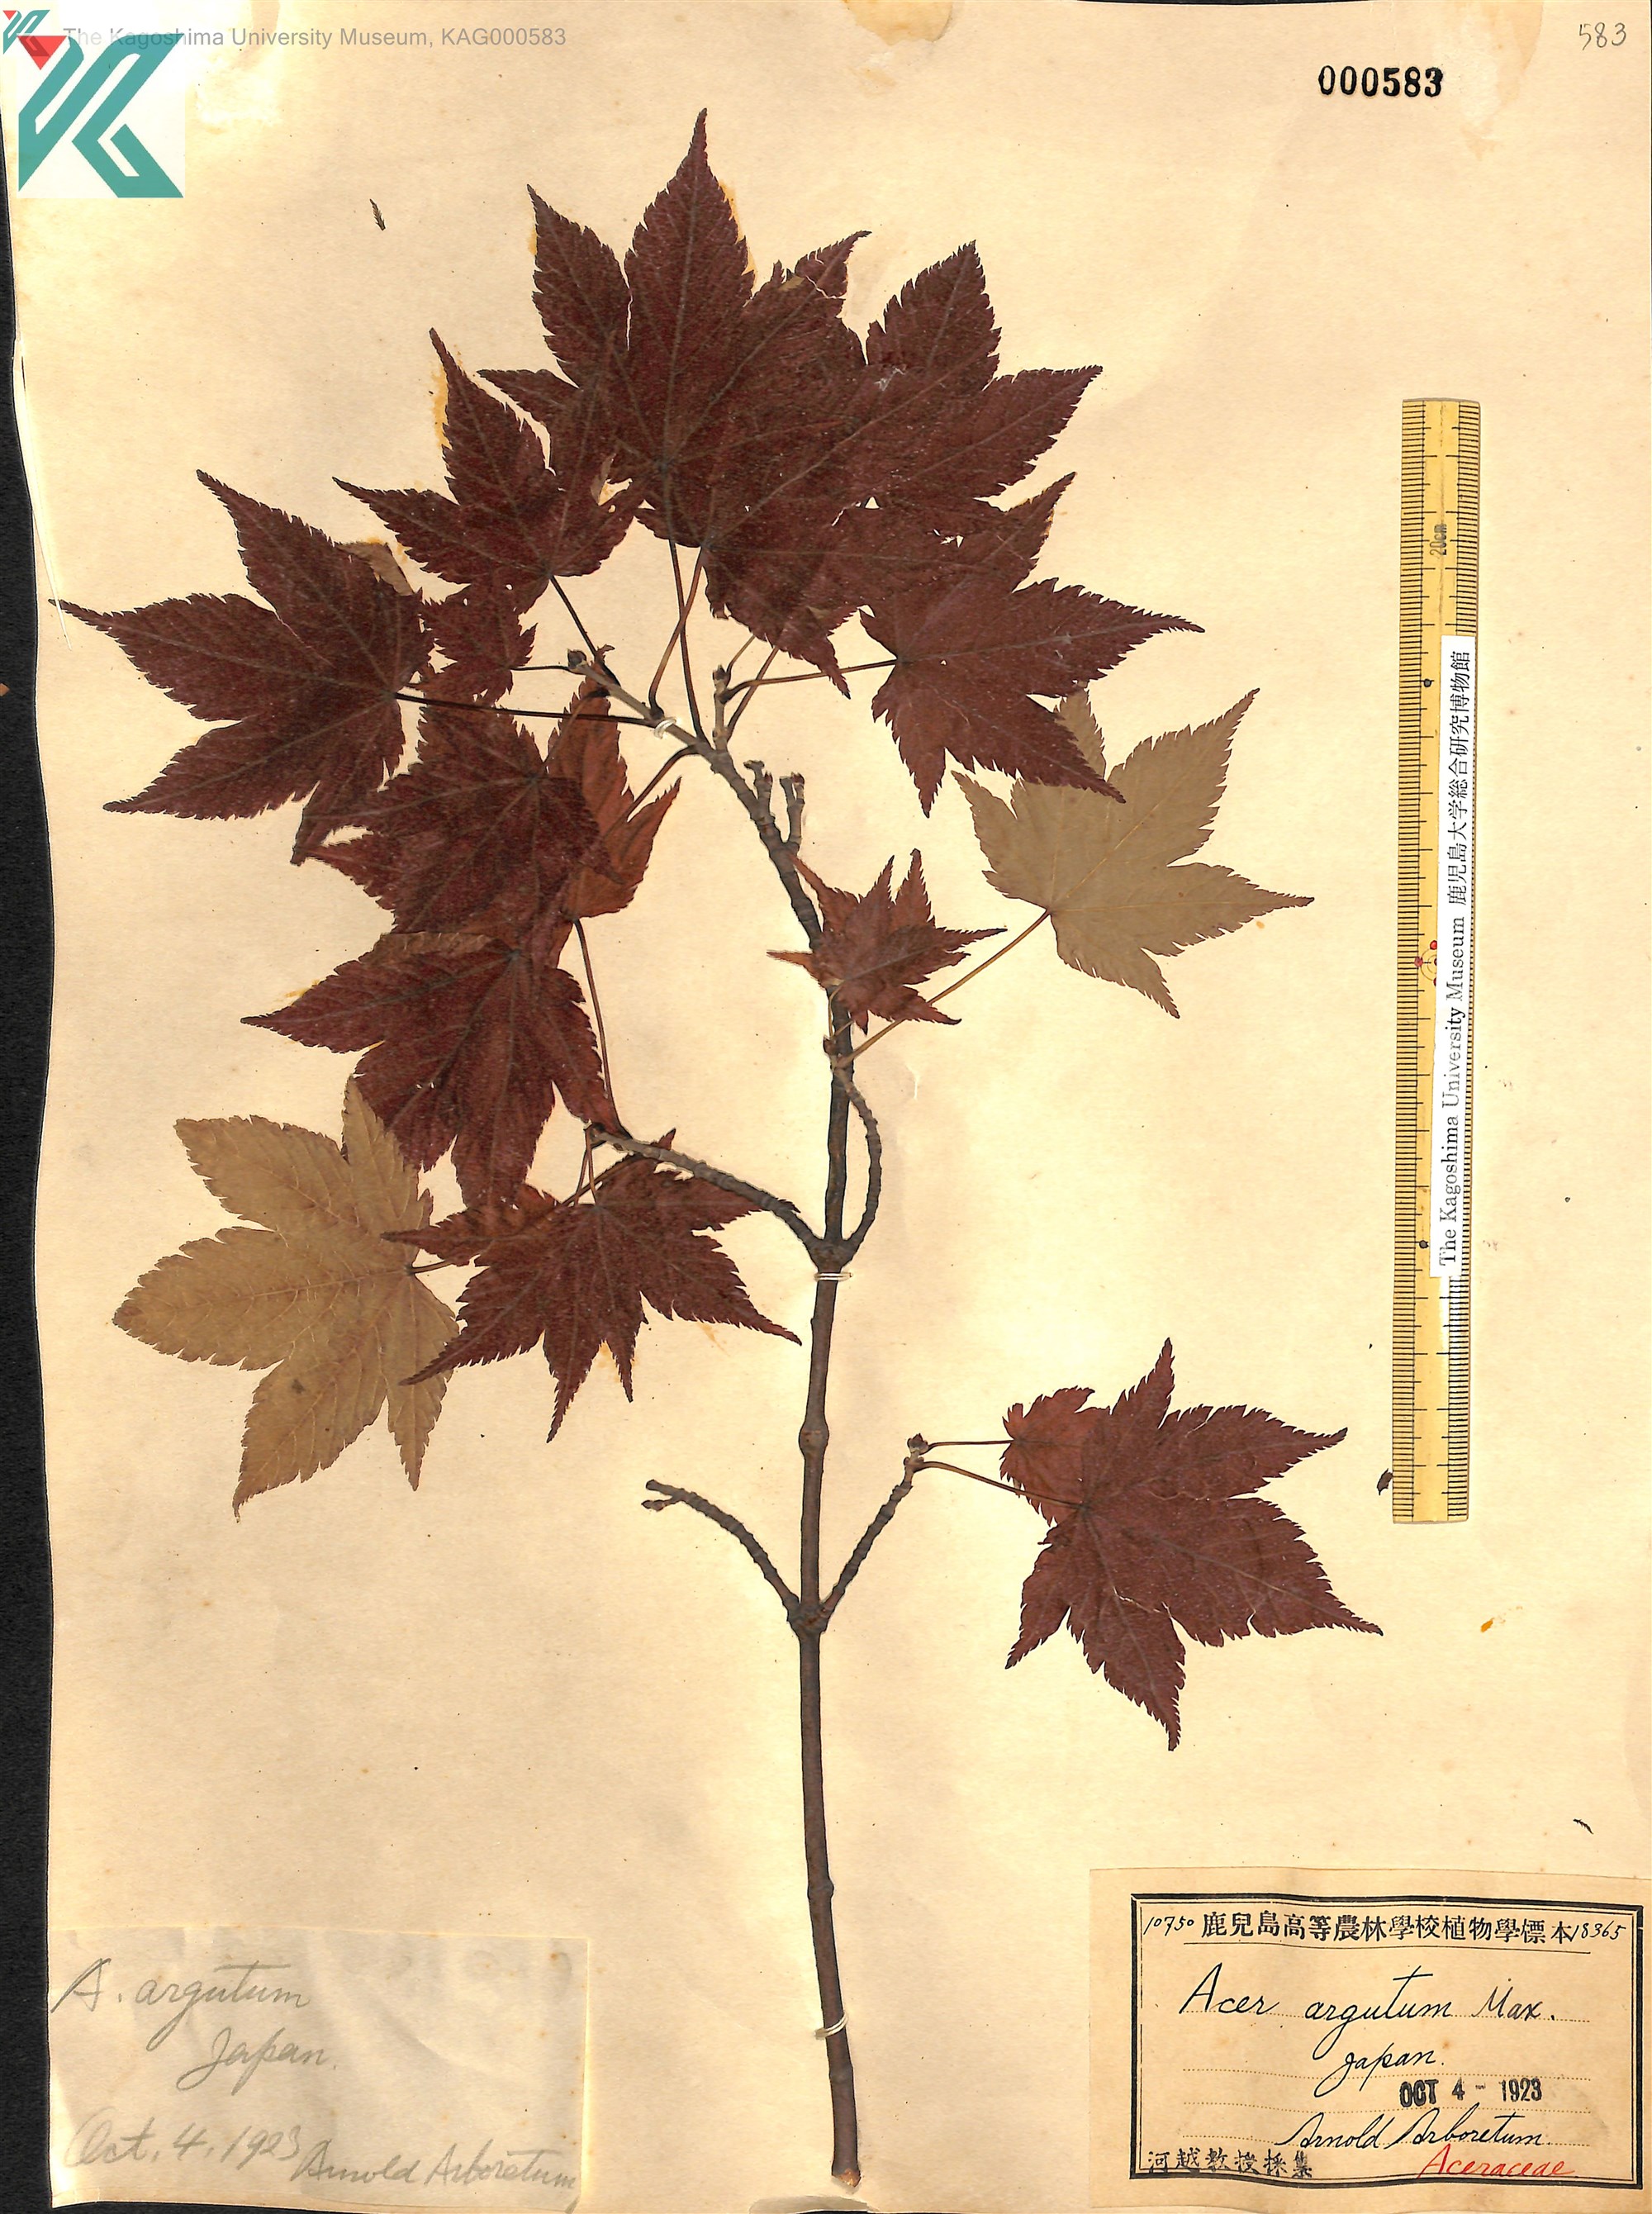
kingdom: Plantae
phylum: Tracheophyta
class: Magnoliopsida
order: Sapindales
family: Sapindaceae
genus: Acer
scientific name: Acer argutum
